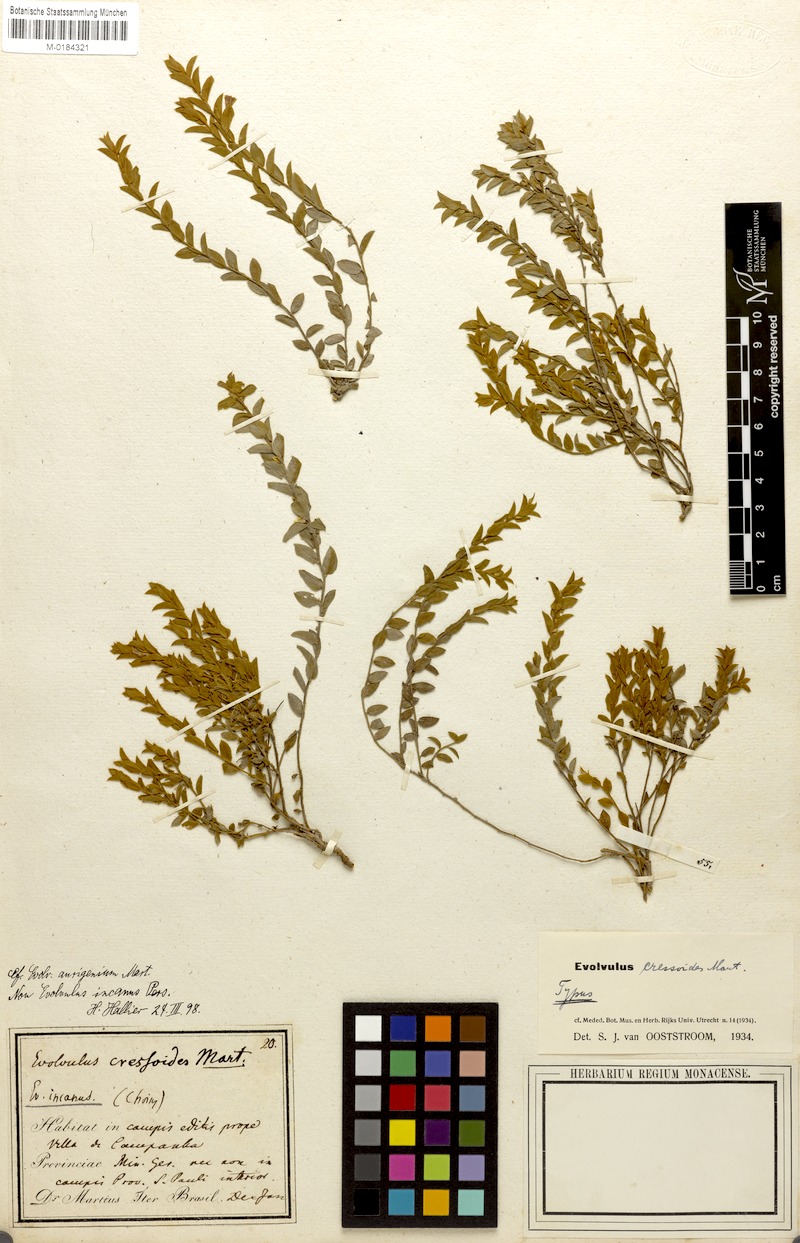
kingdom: Plantae
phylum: Tracheophyta
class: Magnoliopsida
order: Solanales
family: Convolvulaceae
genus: Evolvulus
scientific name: Evolvulus cressoides
